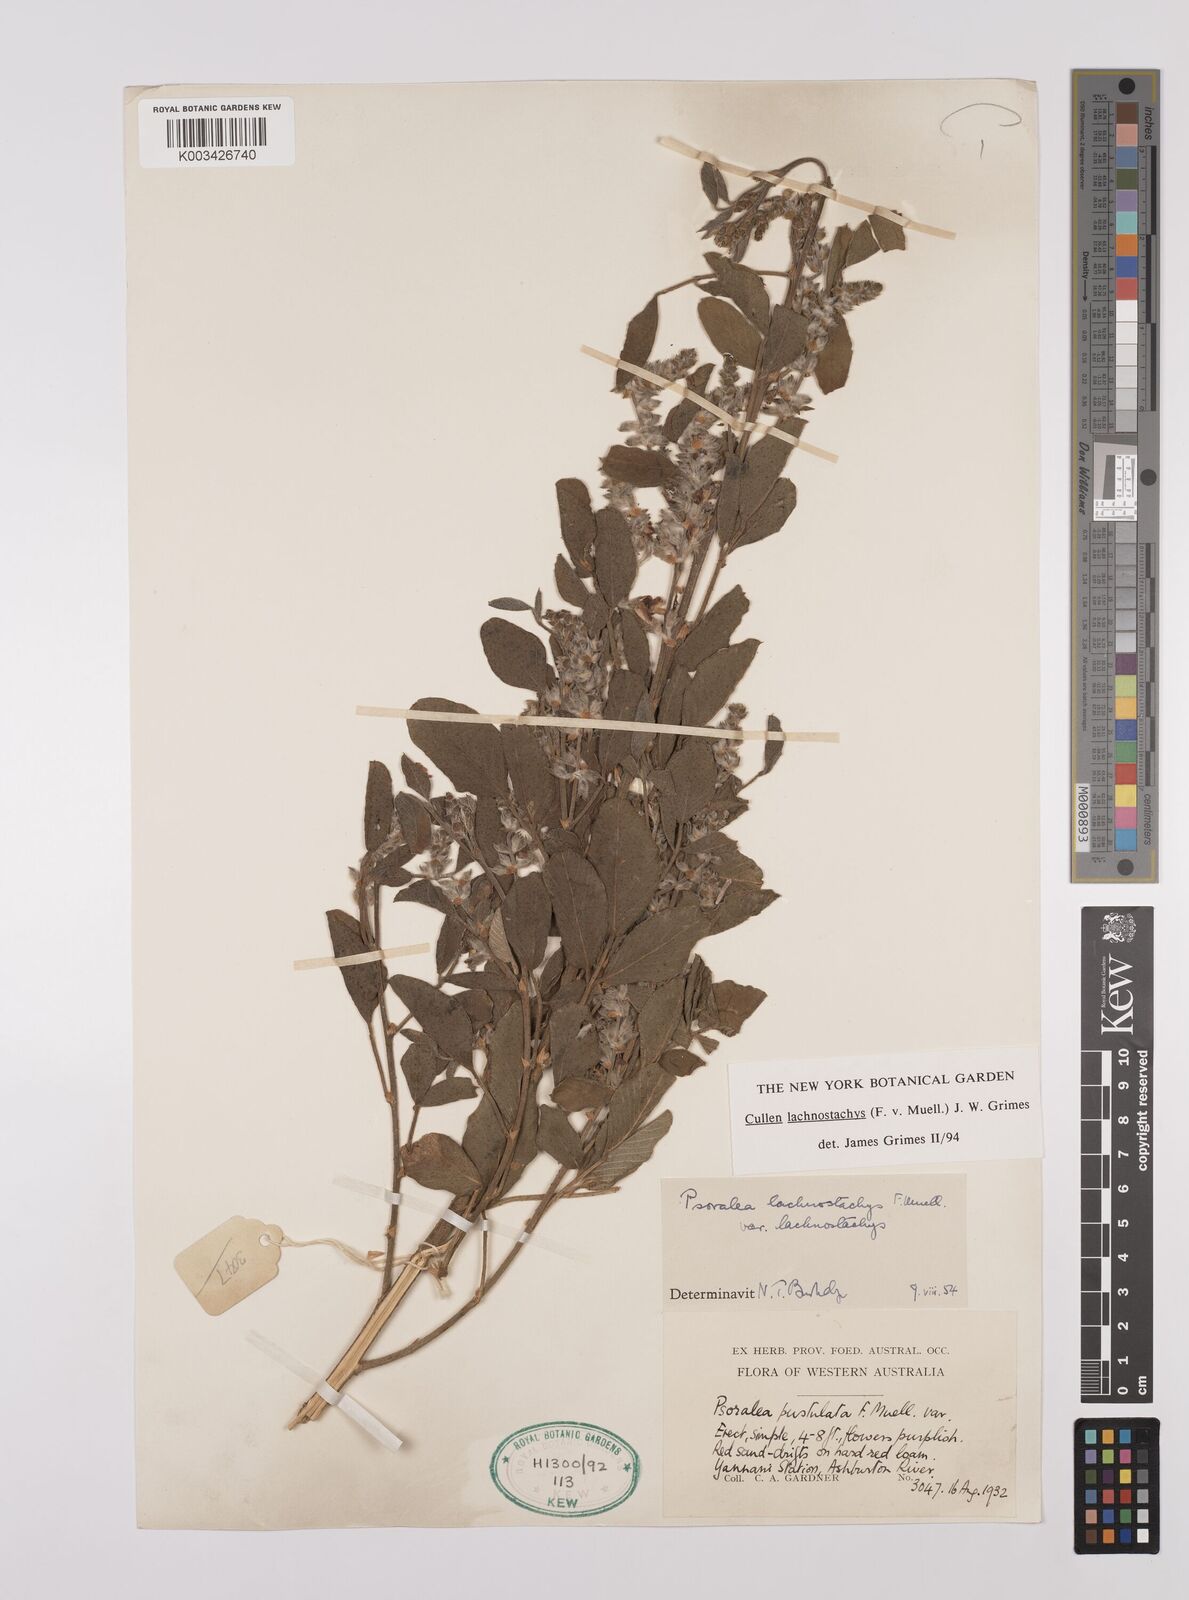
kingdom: Plantae
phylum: Tracheophyta
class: Magnoliopsida
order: Fabales
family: Fabaceae
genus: Cullen
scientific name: Cullen lachnostachys
